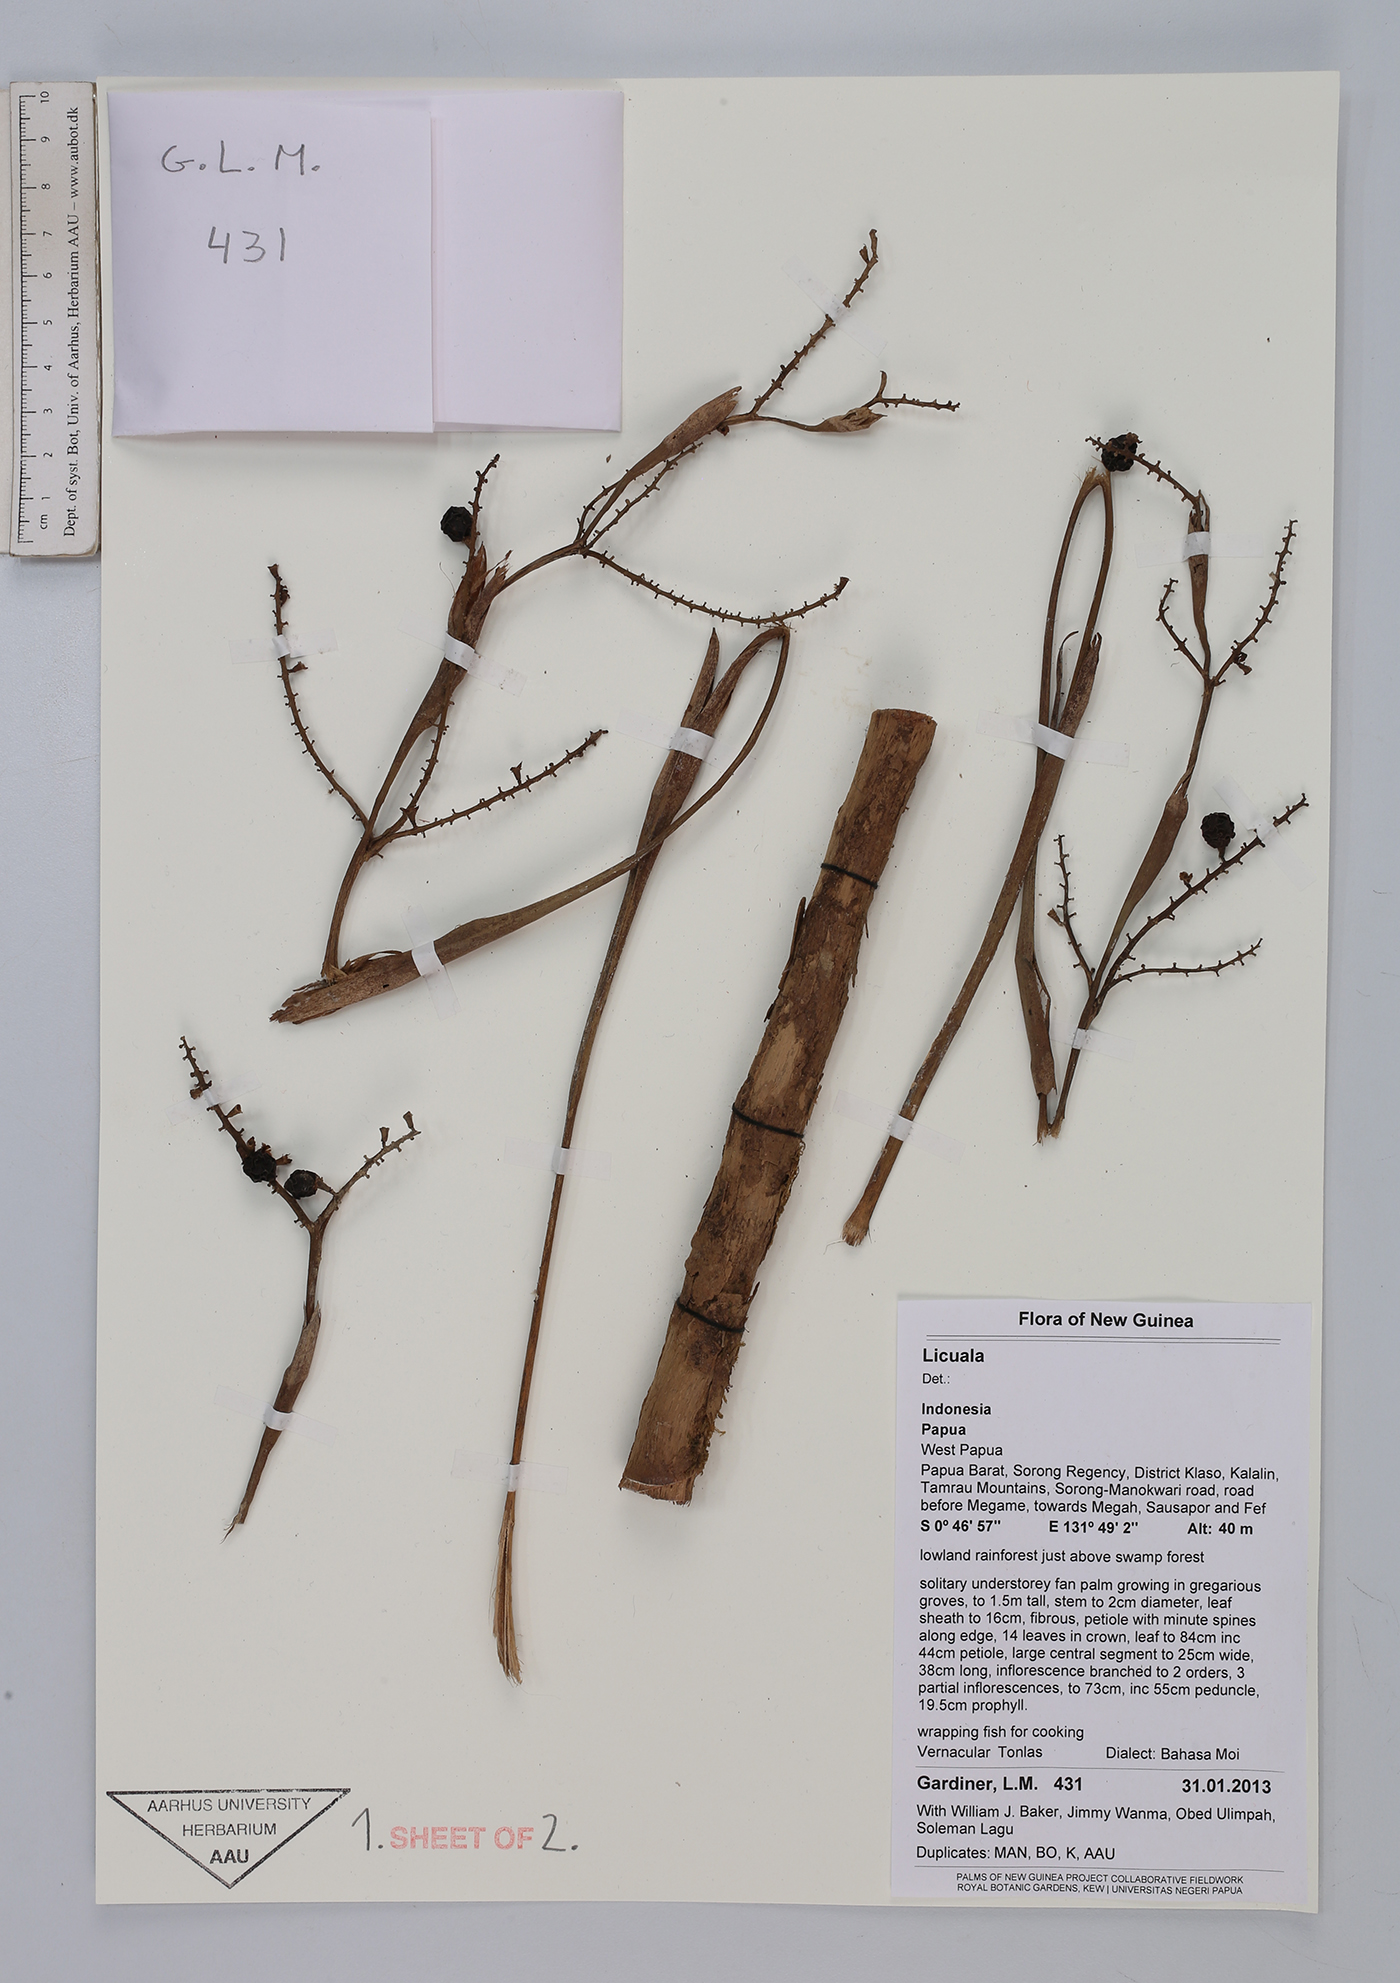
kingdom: Plantae
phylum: Tracheophyta
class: Liliopsida
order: Arecales
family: Arecaceae
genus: Licuala
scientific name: Licuala
